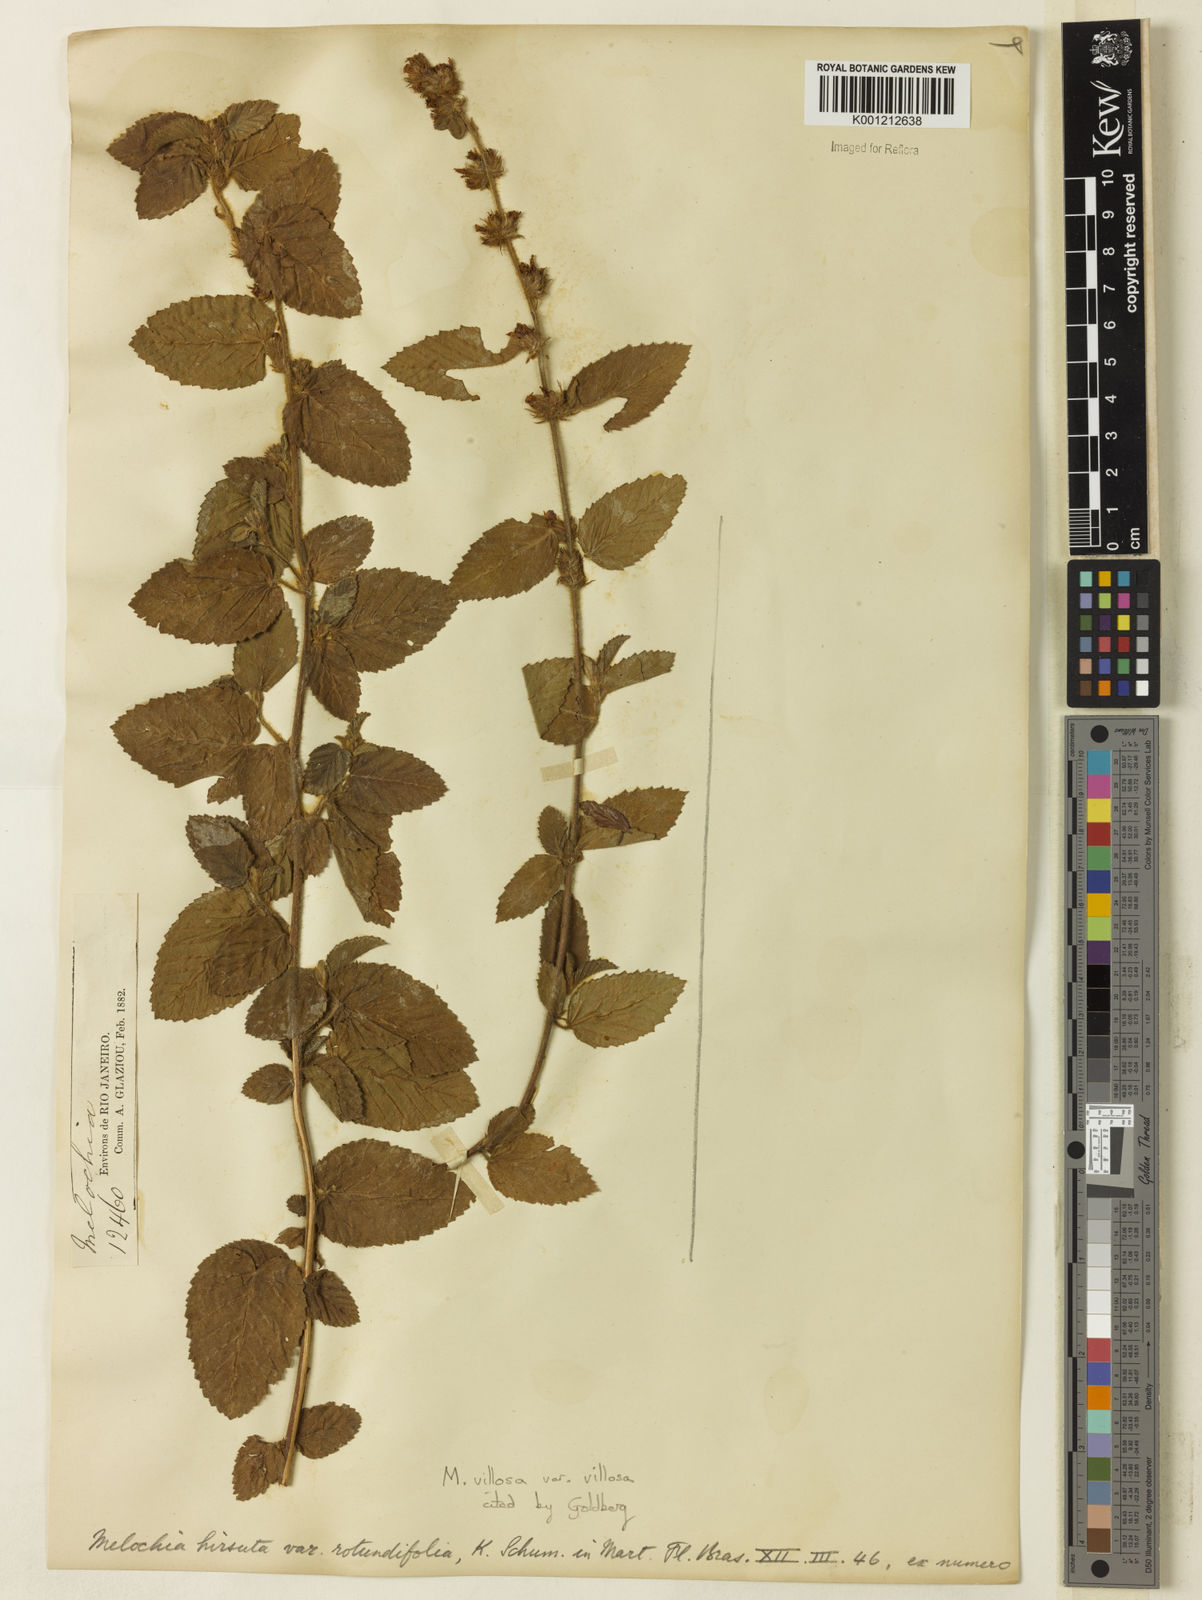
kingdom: Plantae
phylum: Tracheophyta
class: Magnoliopsida
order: Malvales
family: Malvaceae
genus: Melochia
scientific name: Melochia spicata
